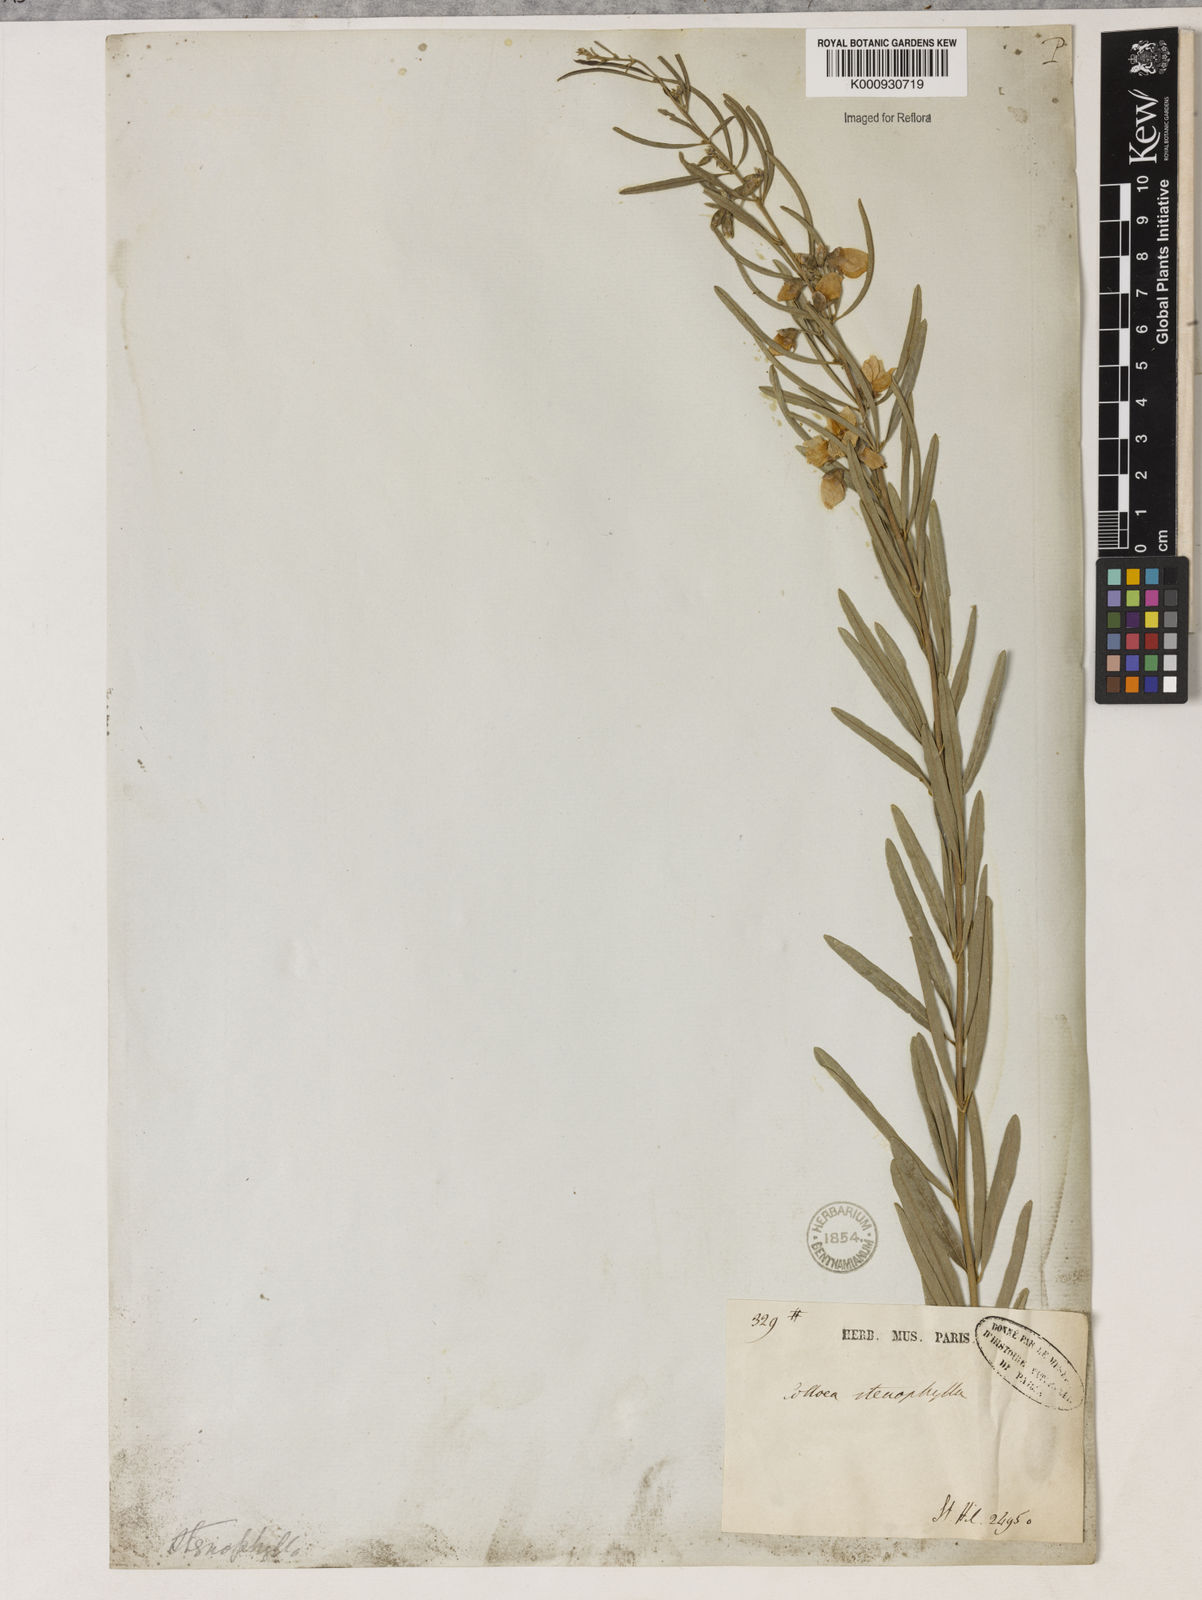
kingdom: Plantae
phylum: Tracheophyta
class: Liliopsida
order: Asparagales
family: Orchidaceae
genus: Pelexia
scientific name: Pelexia
